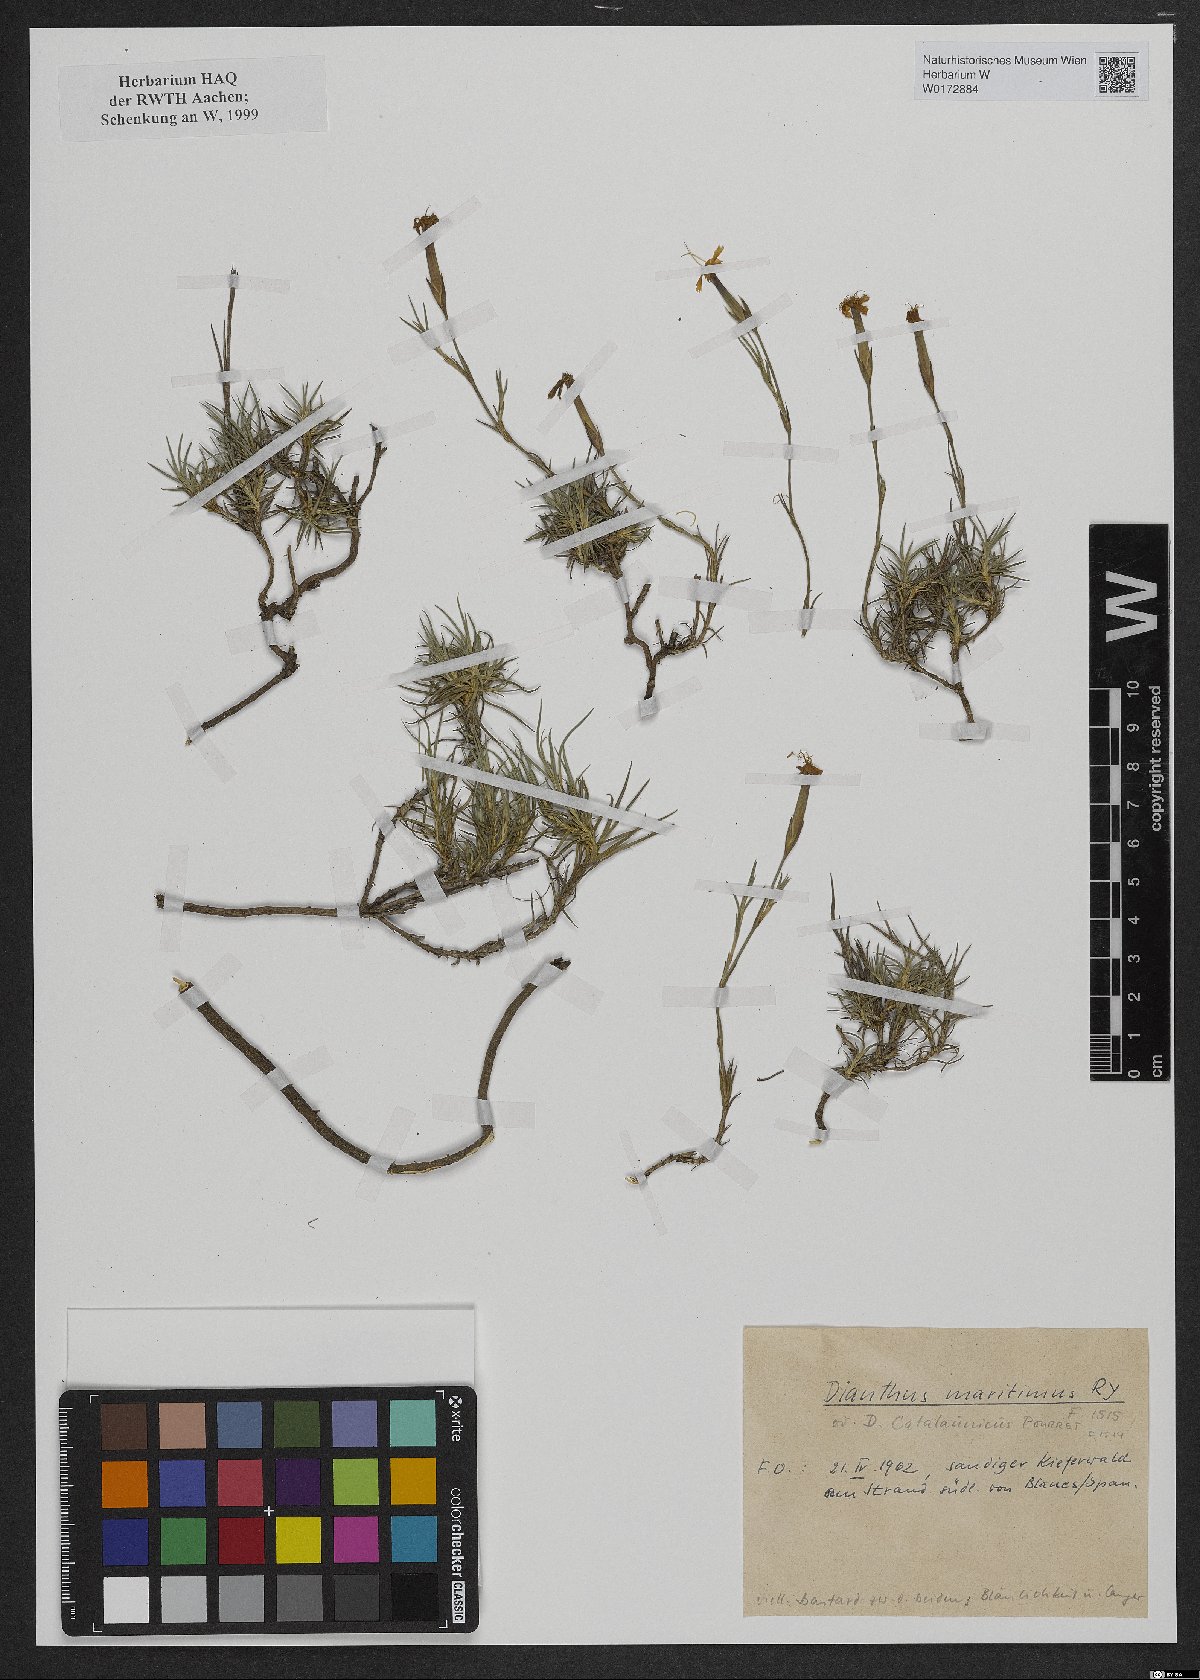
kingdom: Plantae
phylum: Tracheophyta
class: Magnoliopsida
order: Caryophyllales
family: Caryophyllaceae
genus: Dianthus
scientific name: Dianthus
